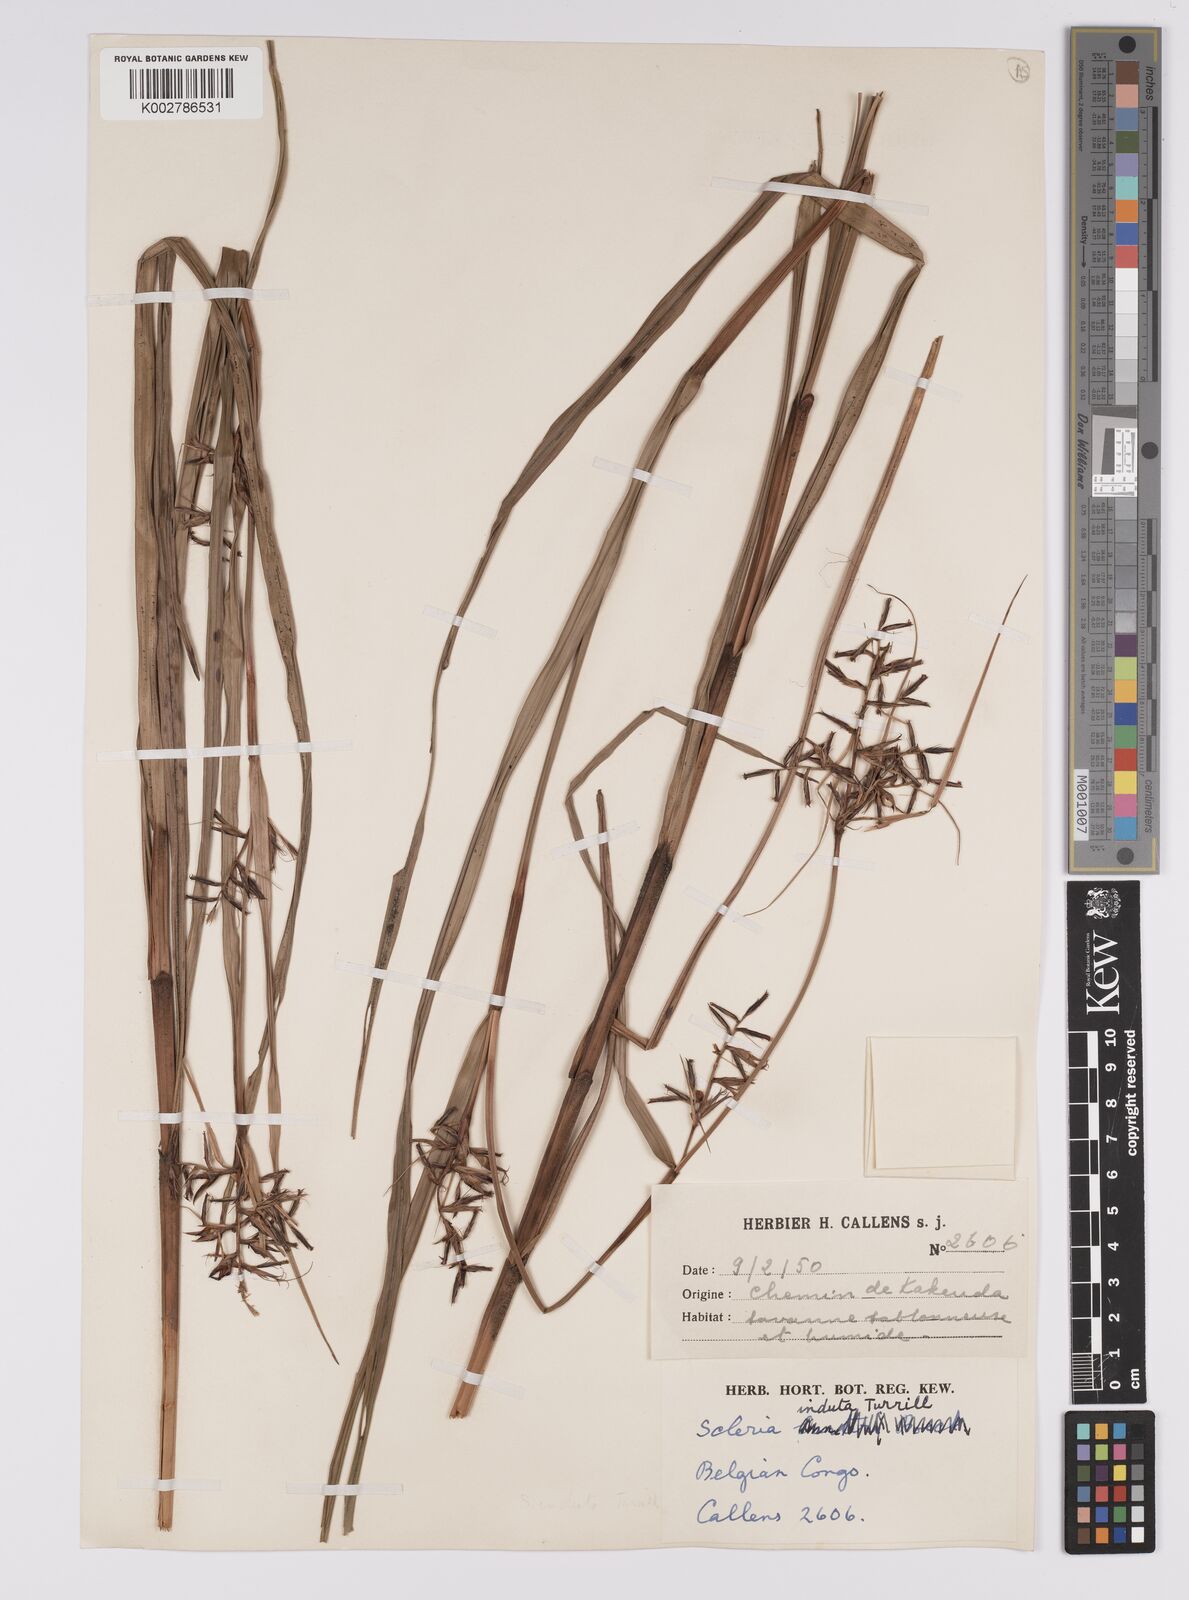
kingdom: Plantae
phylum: Tracheophyta
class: Liliopsida
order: Poales
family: Cyperaceae
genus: Scleria
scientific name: Scleria induta
